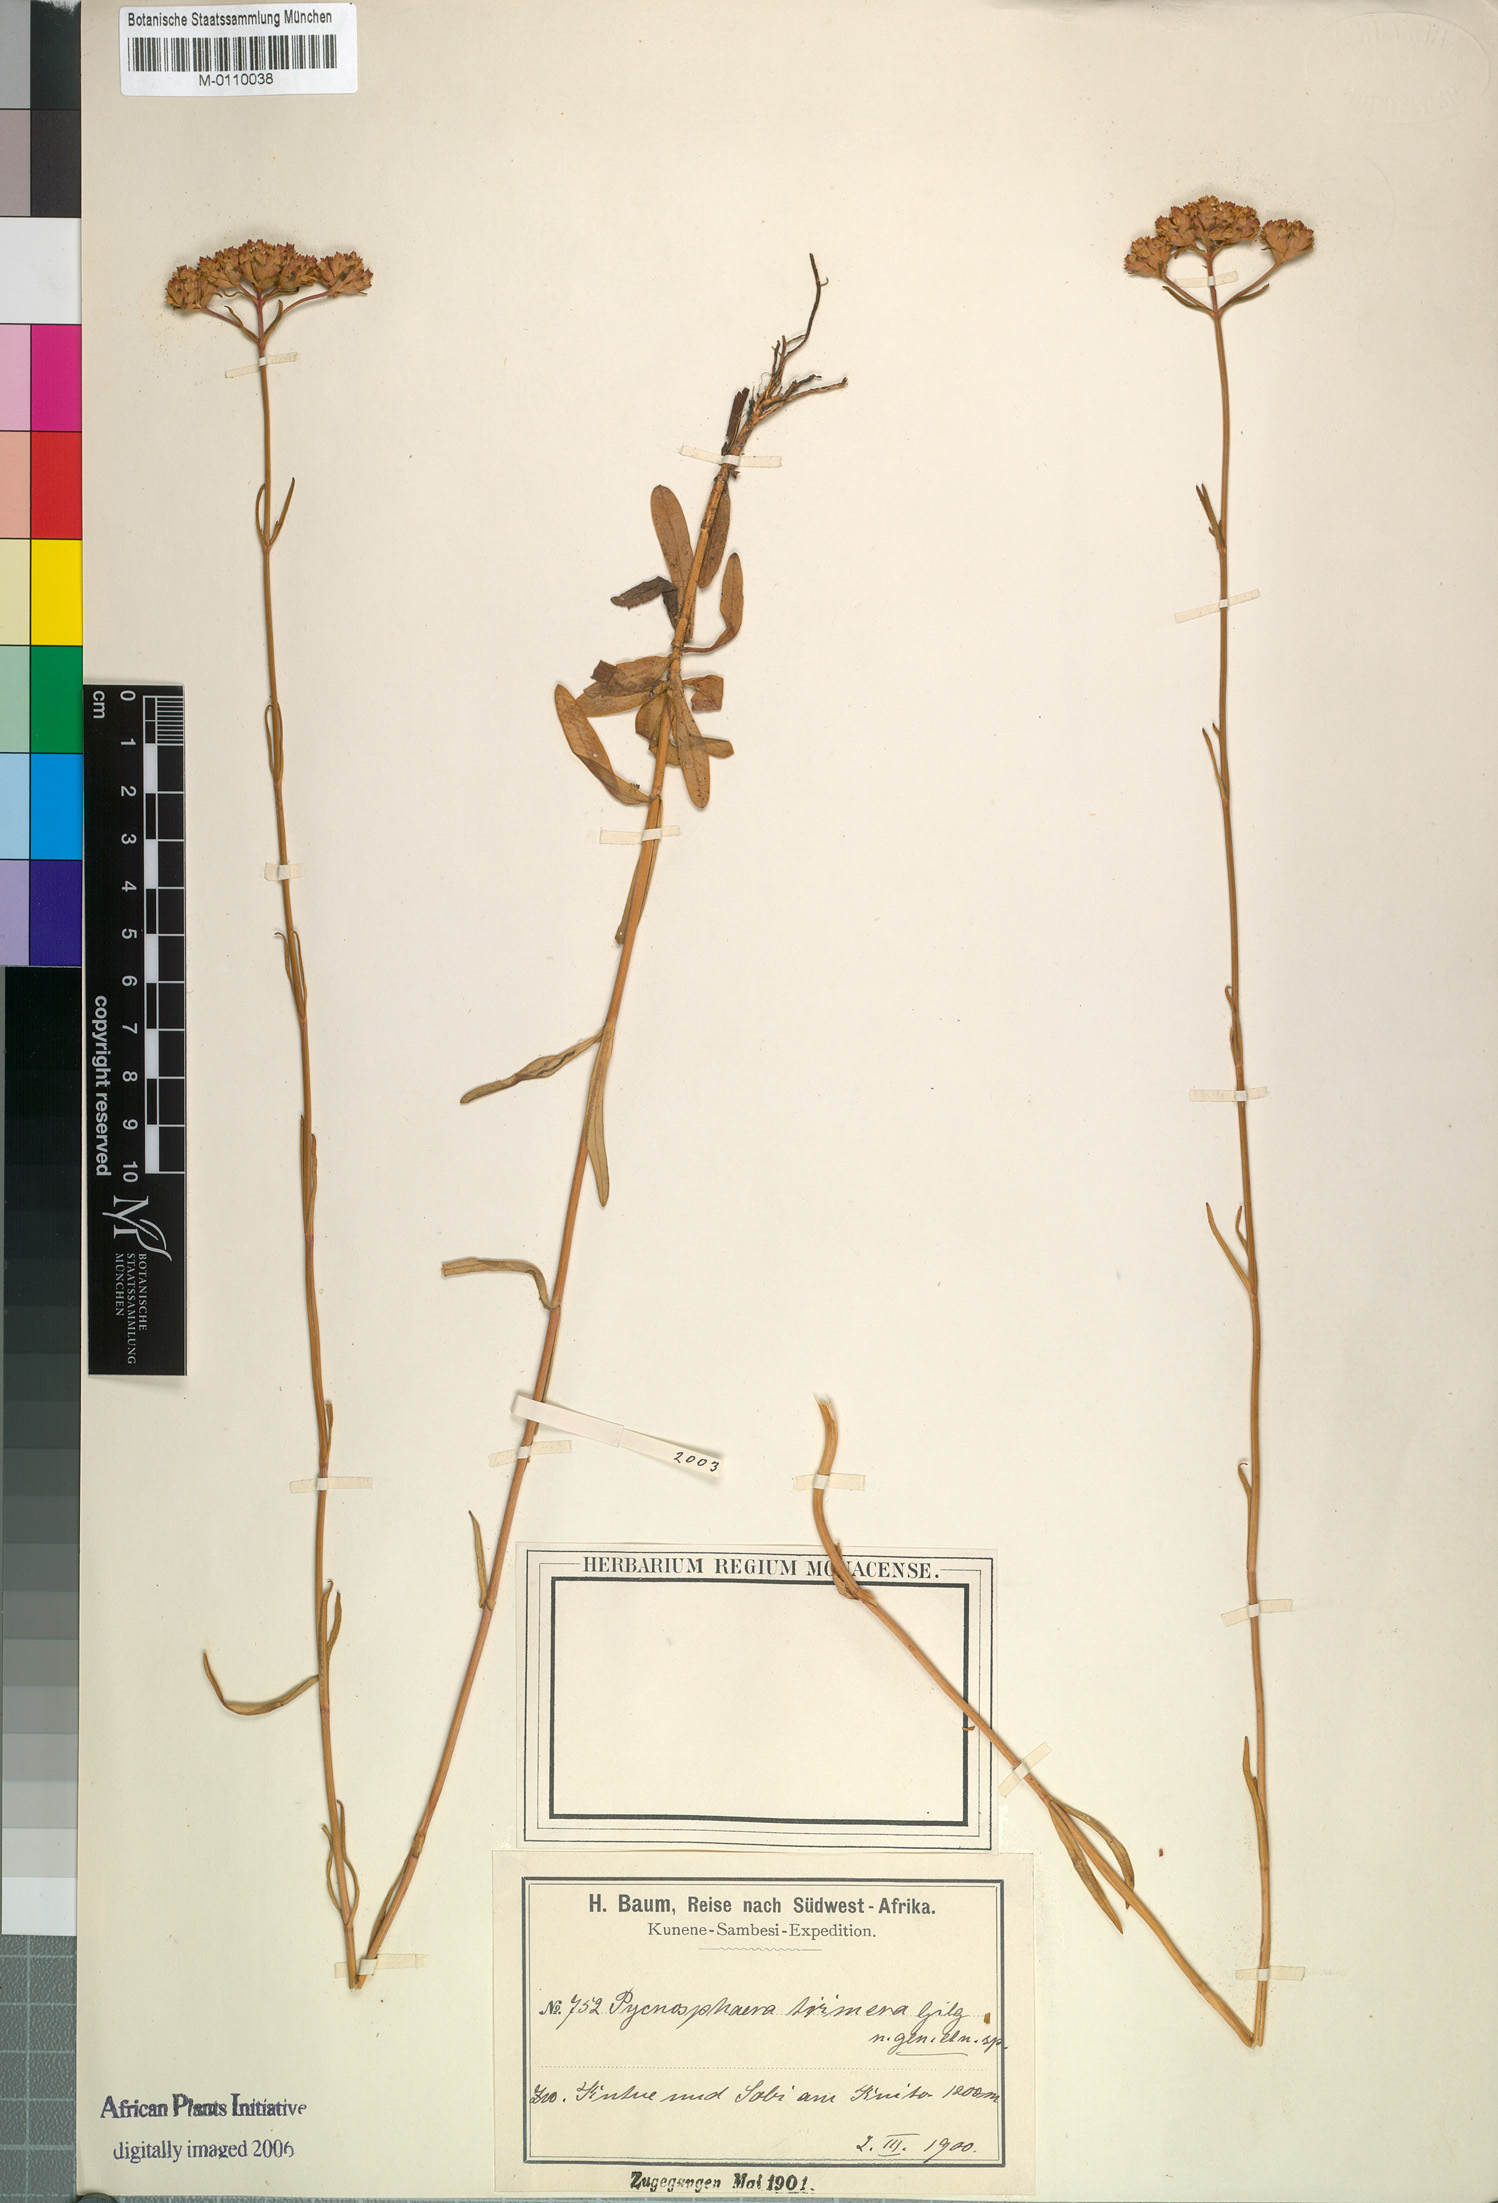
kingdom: Plantae
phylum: Tracheophyta
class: Magnoliopsida
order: Gentianales
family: Gentianaceae
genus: Pycnosphaera
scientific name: Pycnosphaera buchananii
